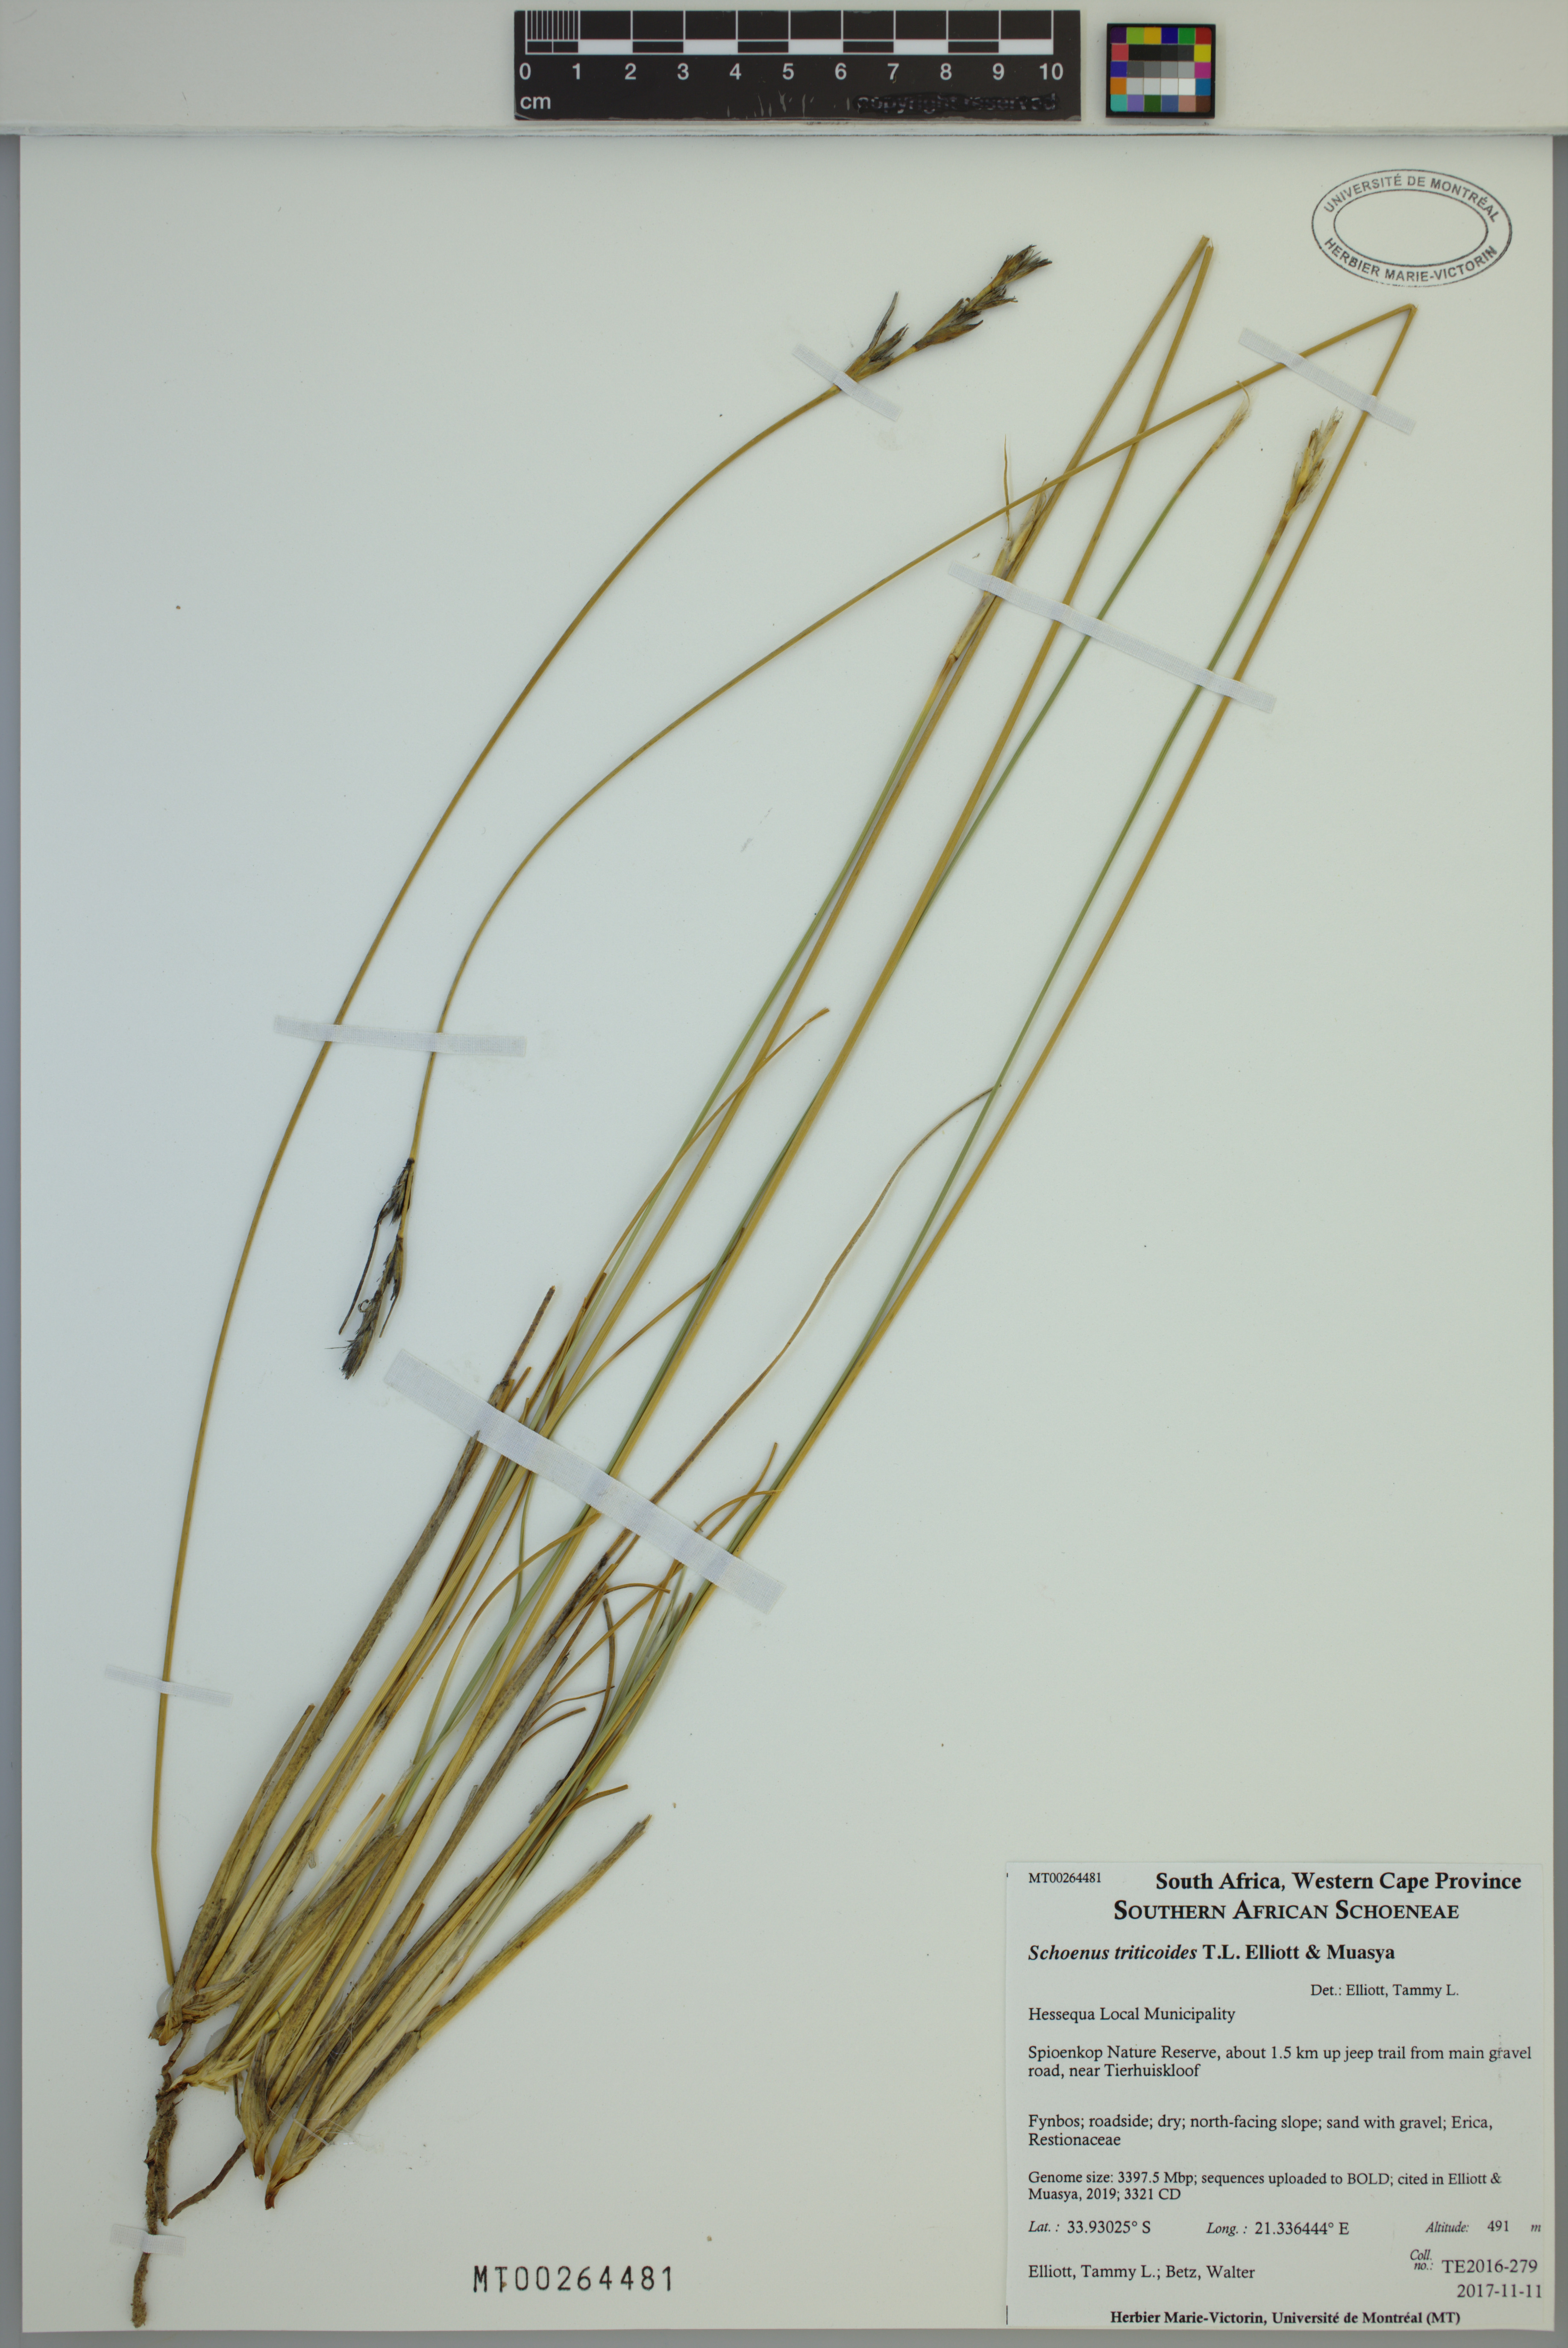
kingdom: Plantae
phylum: Tracheophyta
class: Liliopsida
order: Poales
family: Cyperaceae
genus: Schoenus
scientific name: Schoenus triticoides
